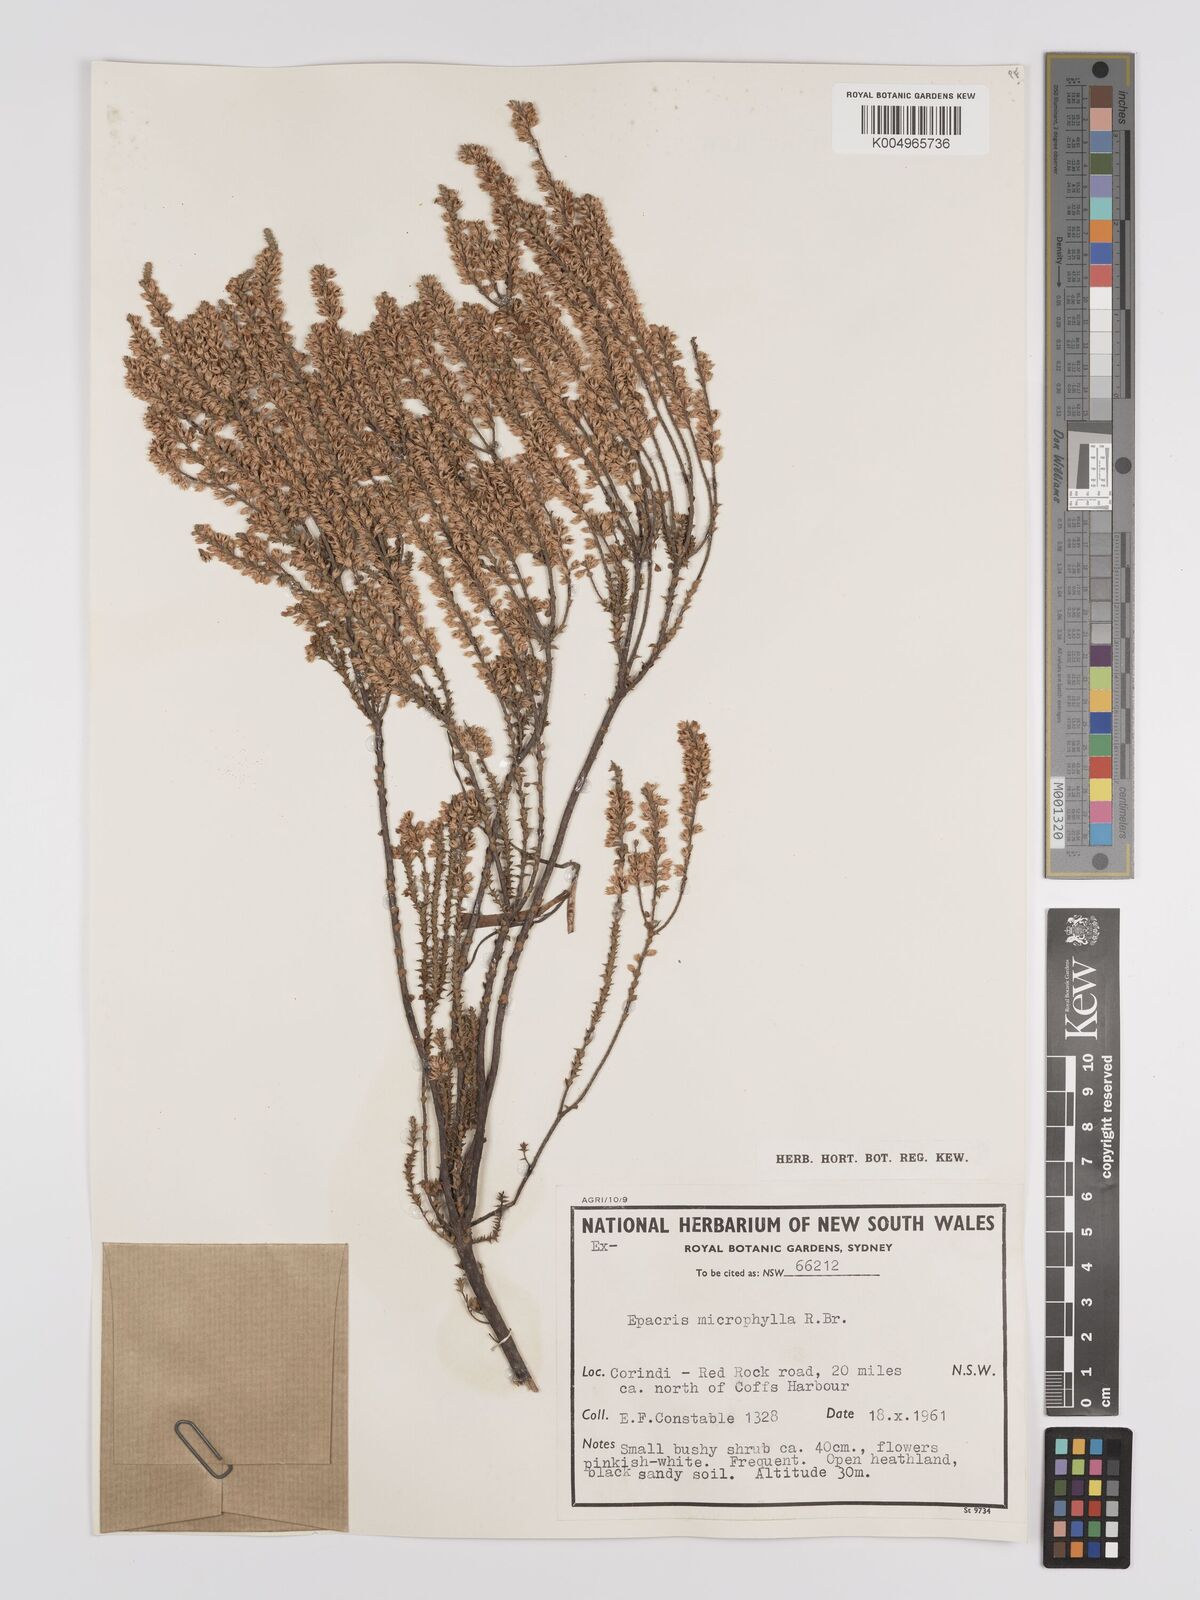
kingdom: Plantae
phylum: Tracheophyta
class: Magnoliopsida
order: Ericales
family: Ericaceae
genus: Epacris
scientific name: Epacris
